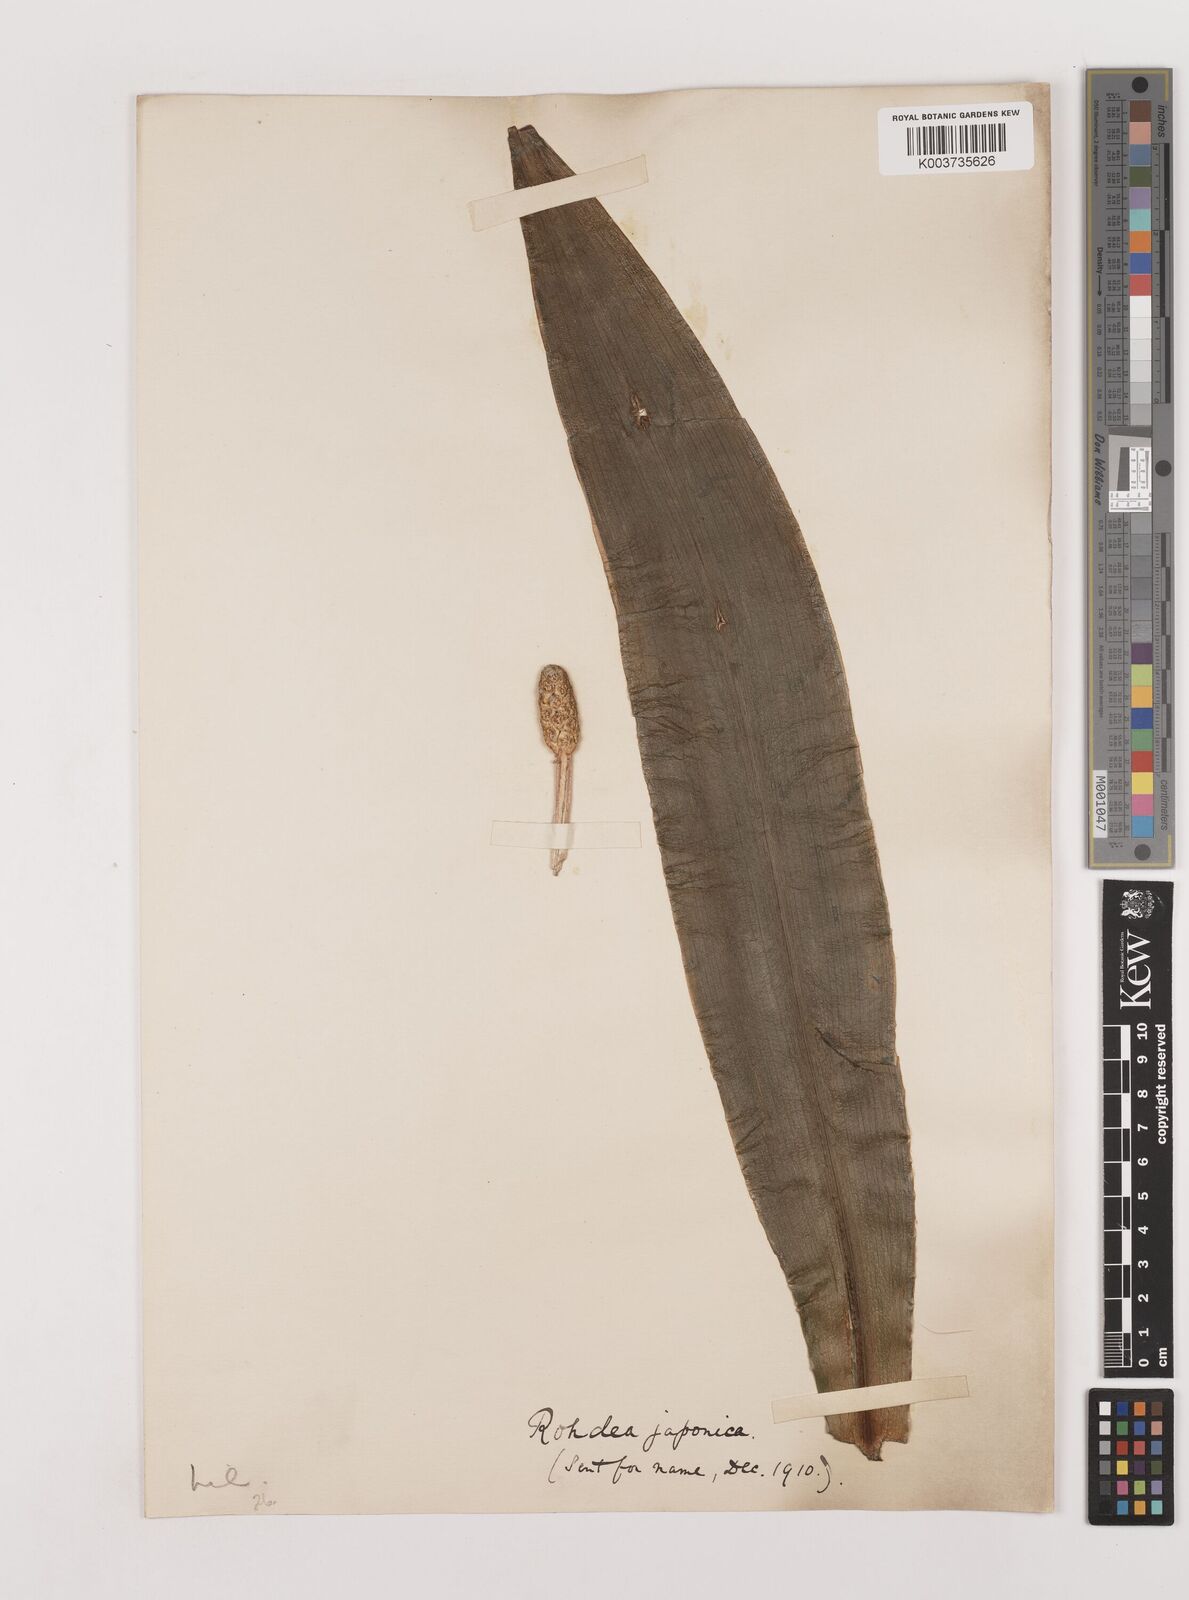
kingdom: Plantae
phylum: Tracheophyta
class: Liliopsida
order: Asparagales
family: Asparagaceae
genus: Rohdea
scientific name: Rohdea japonica
